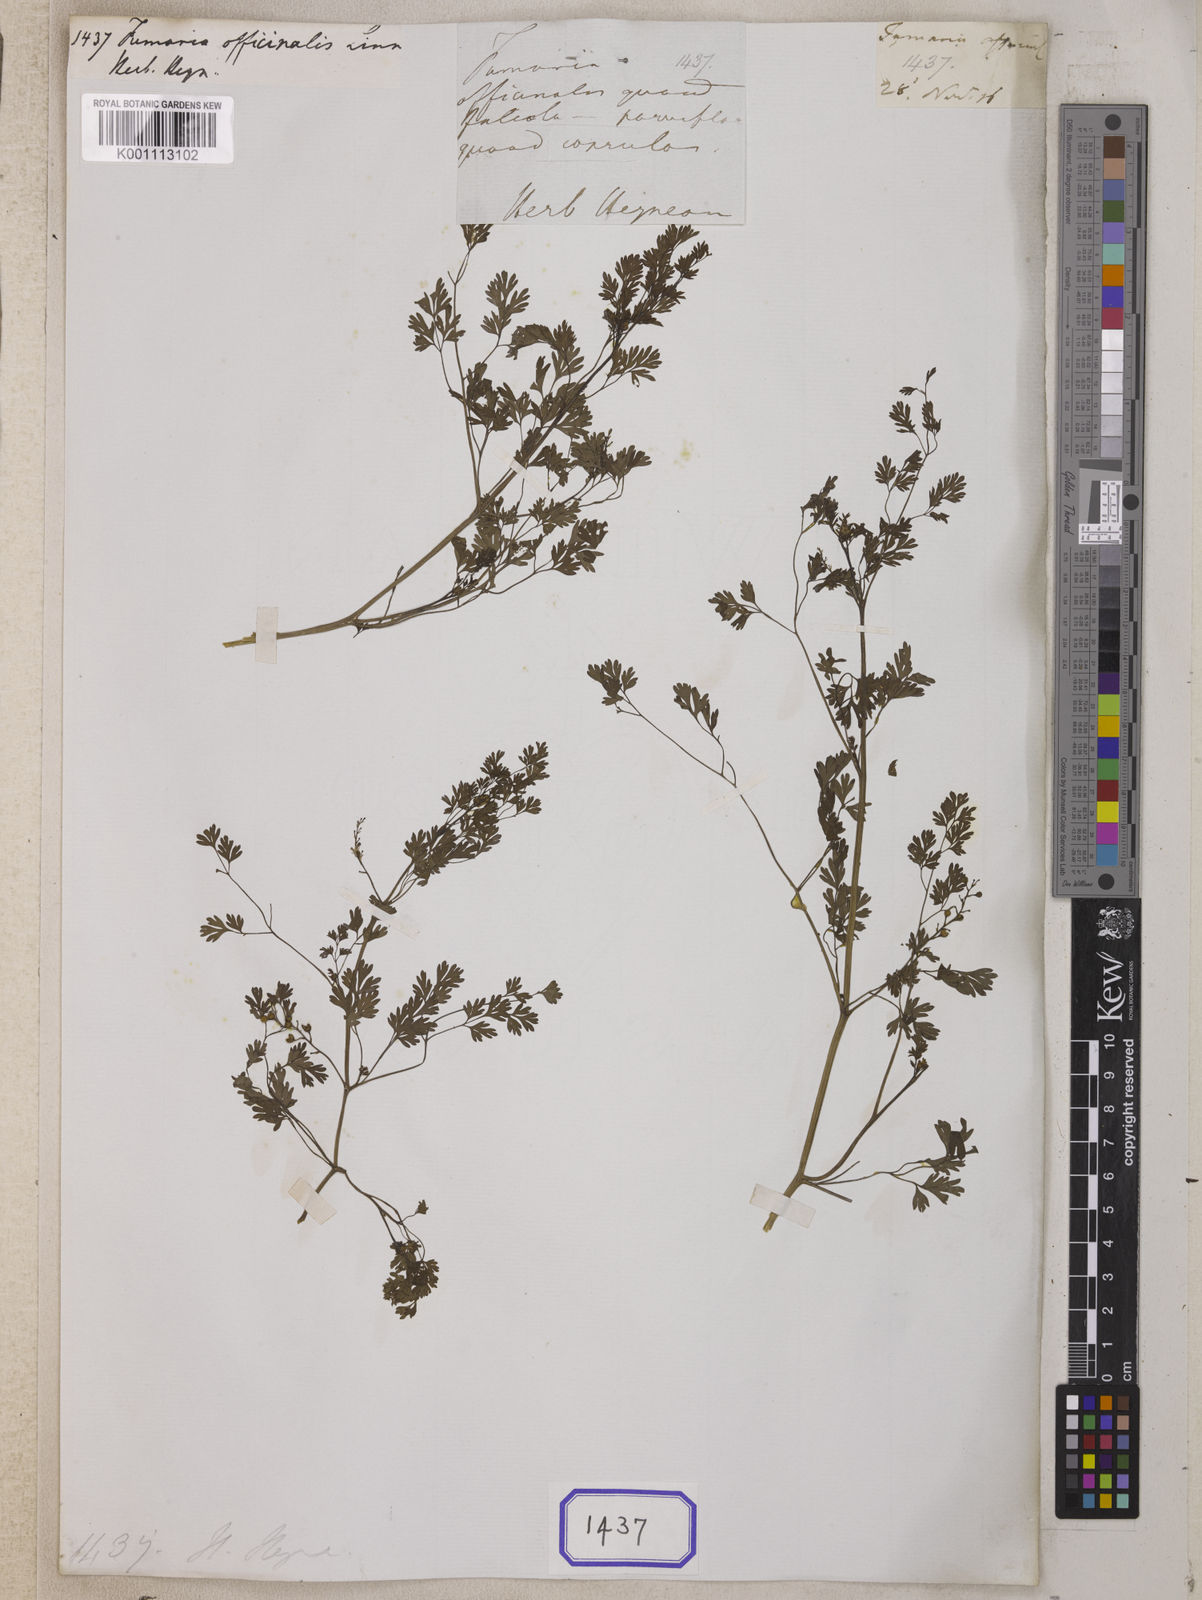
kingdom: Plantae
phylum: Tracheophyta
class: Magnoliopsida
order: Ranunculales
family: Papaveraceae
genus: Fumaria
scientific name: Fumaria officinalis
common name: Common fumitory
